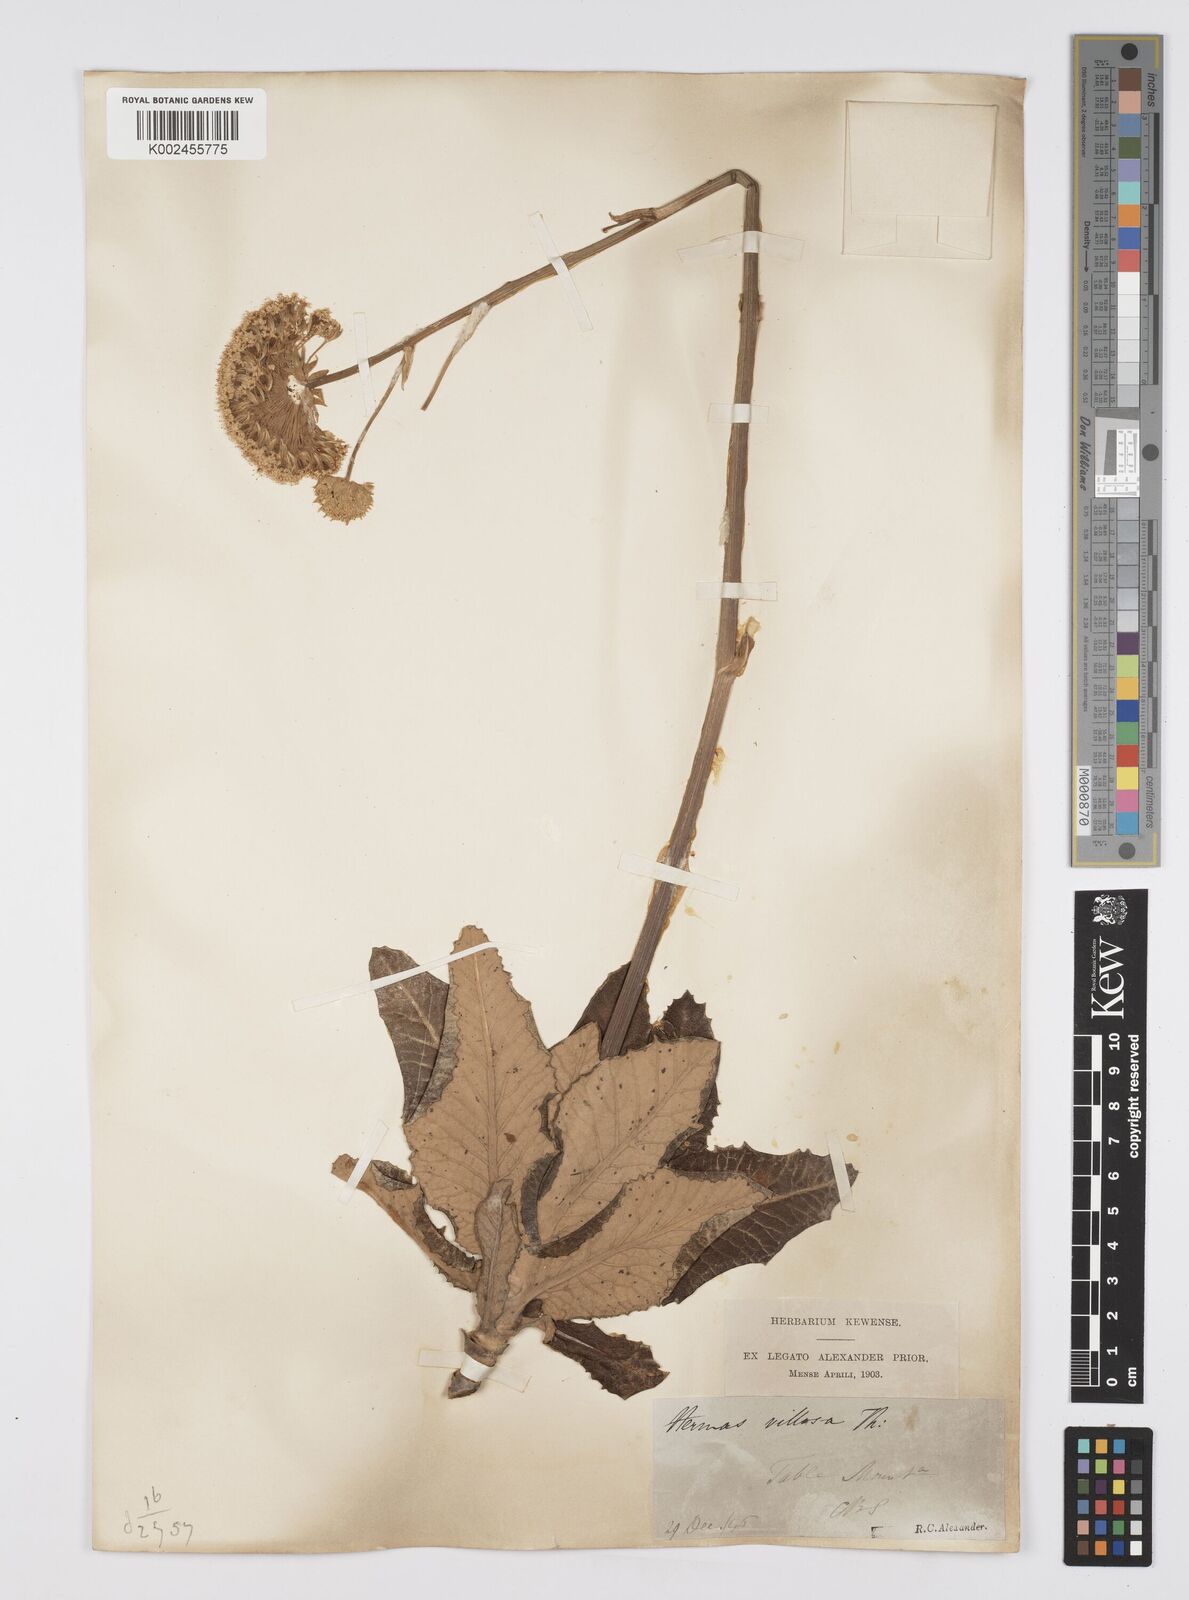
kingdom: Plantae
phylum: Tracheophyta
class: Magnoliopsida
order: Apiales
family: Apiaceae
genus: Hermas
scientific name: Hermas villosa
